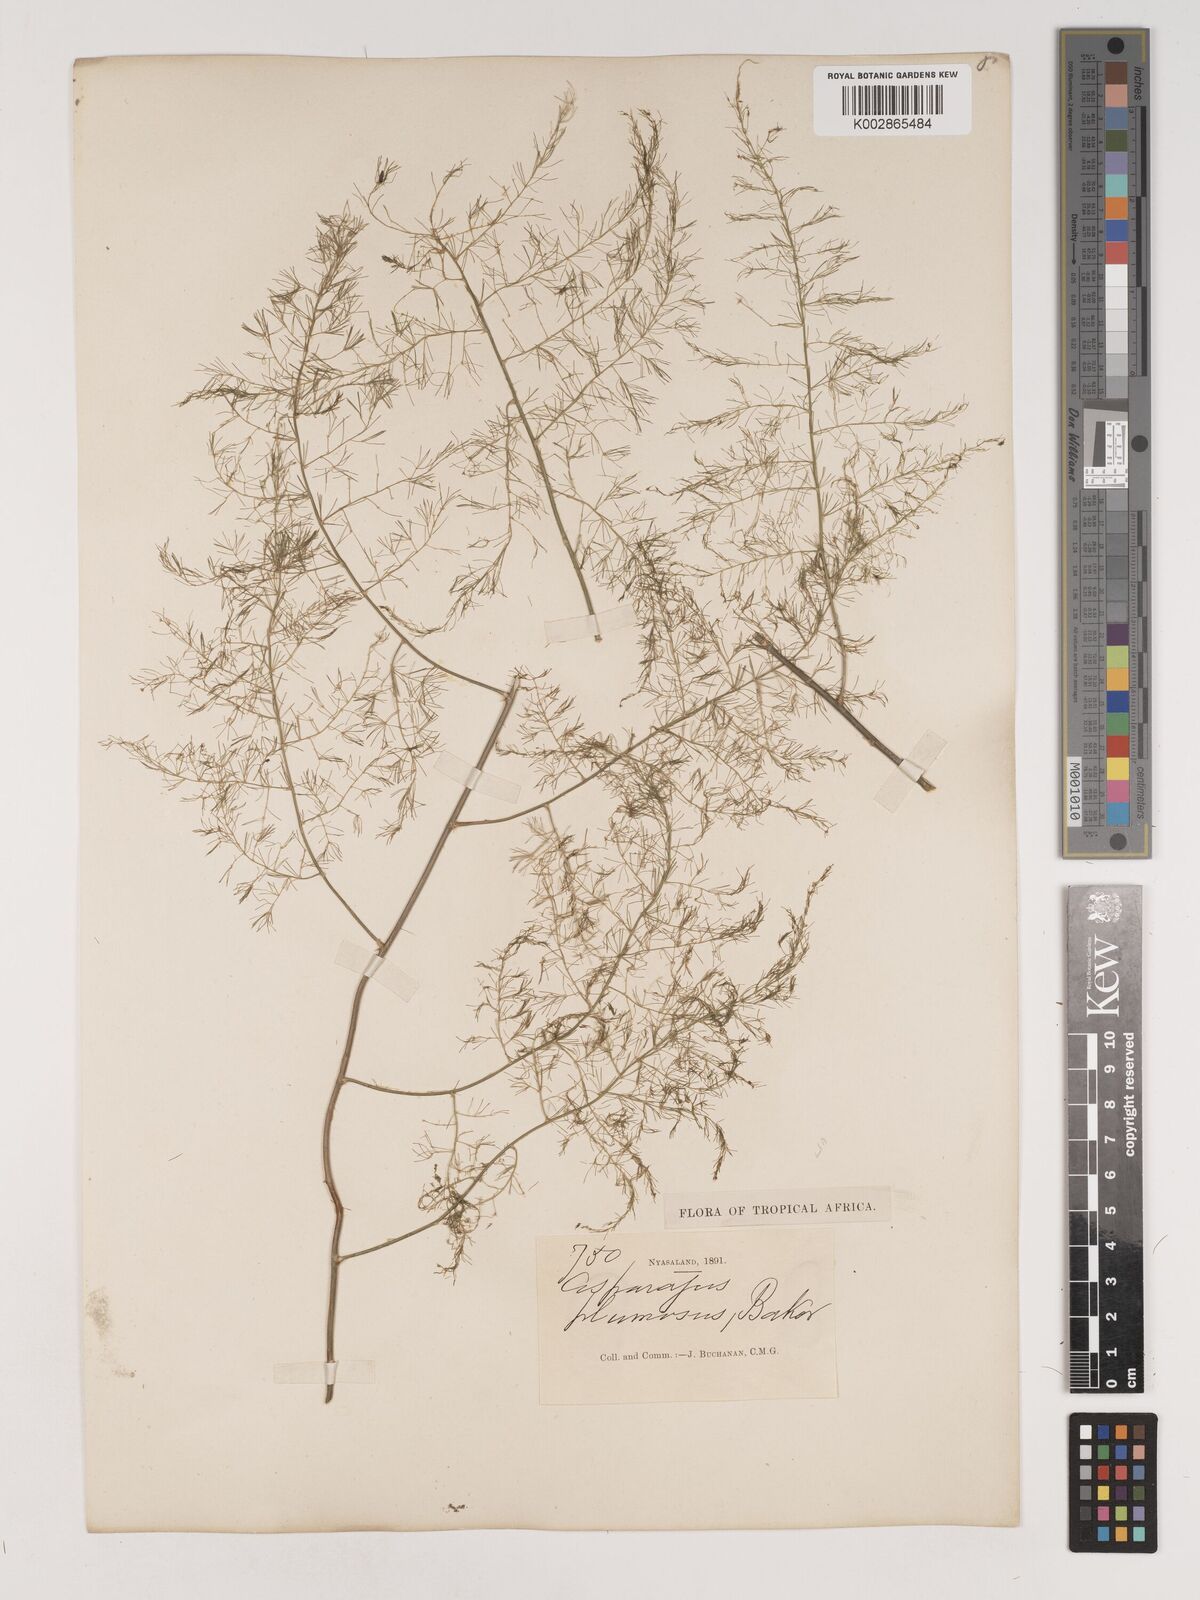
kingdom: Plantae
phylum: Tracheophyta
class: Liliopsida
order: Asparagales
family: Asparagaceae
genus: Asparagus
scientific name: Asparagus setaceus
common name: Common asparagus fern
